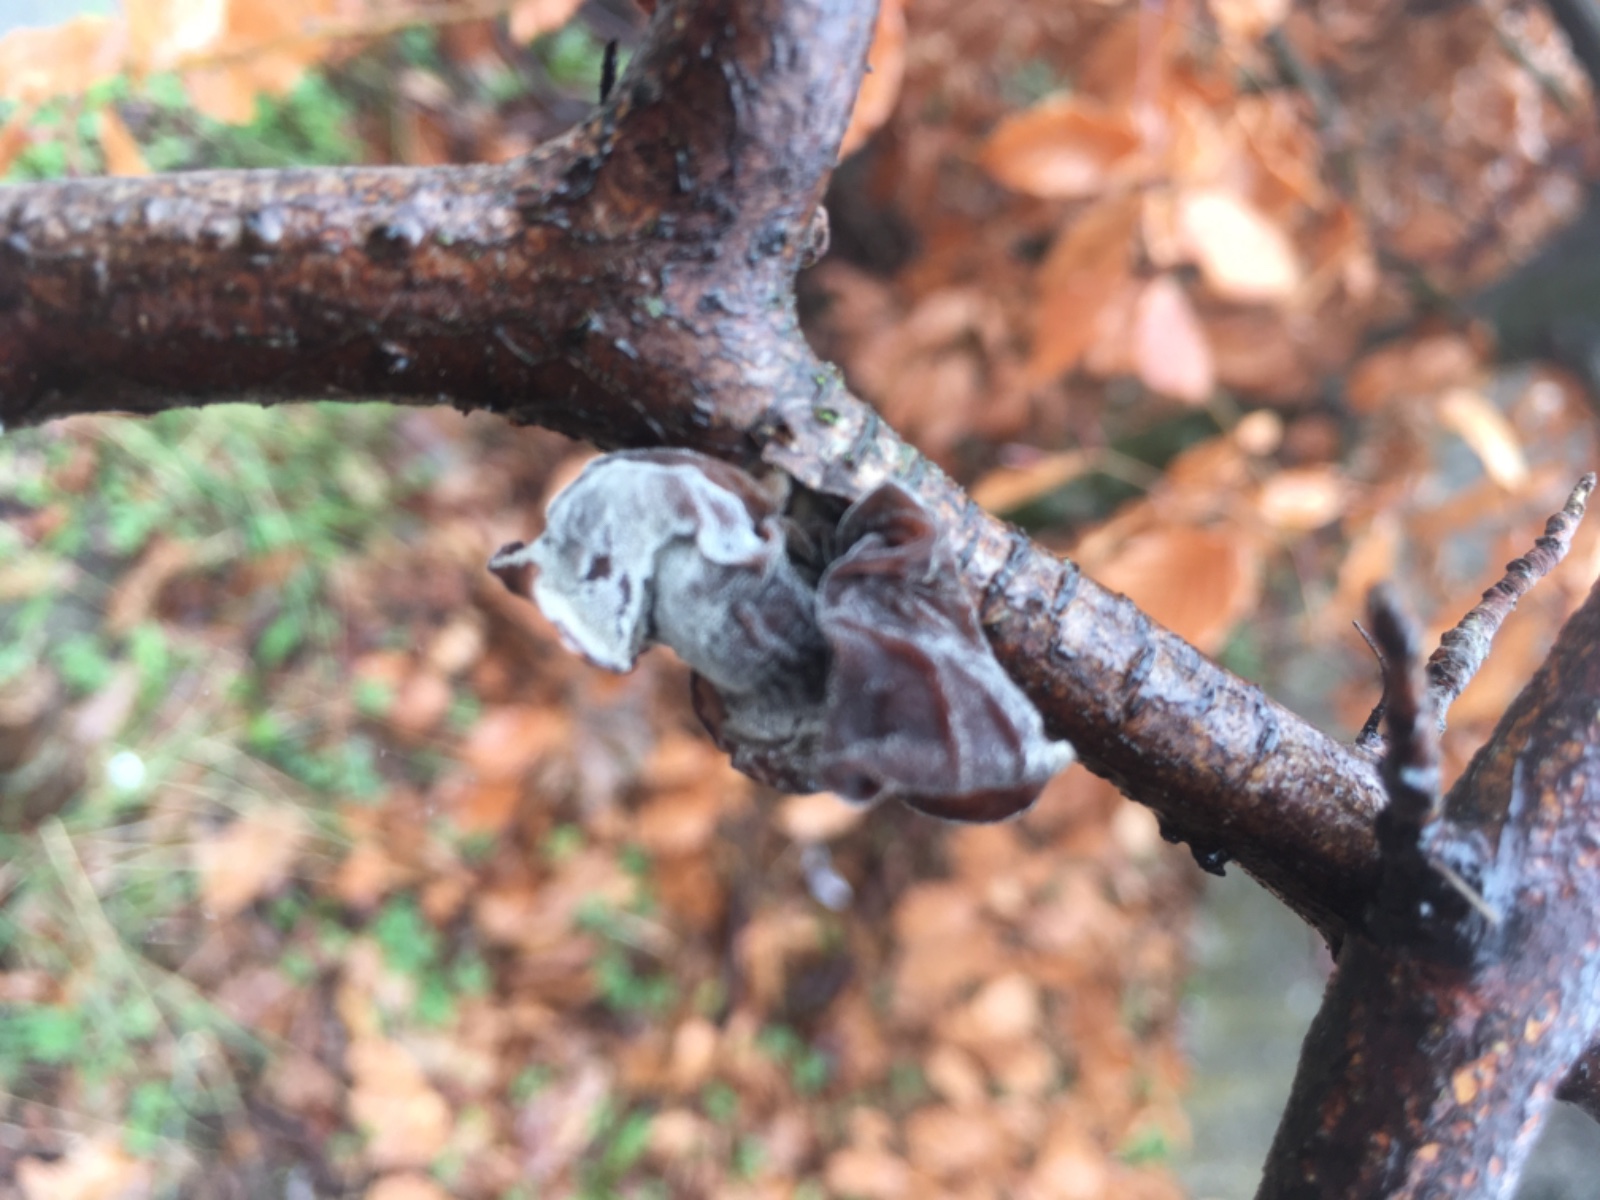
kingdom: Fungi
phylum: Basidiomycota
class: Agaricomycetes
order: Auriculariales
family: Auriculariaceae
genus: Auricularia
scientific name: Auricularia auricula-judae
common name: almindelig judasøre
